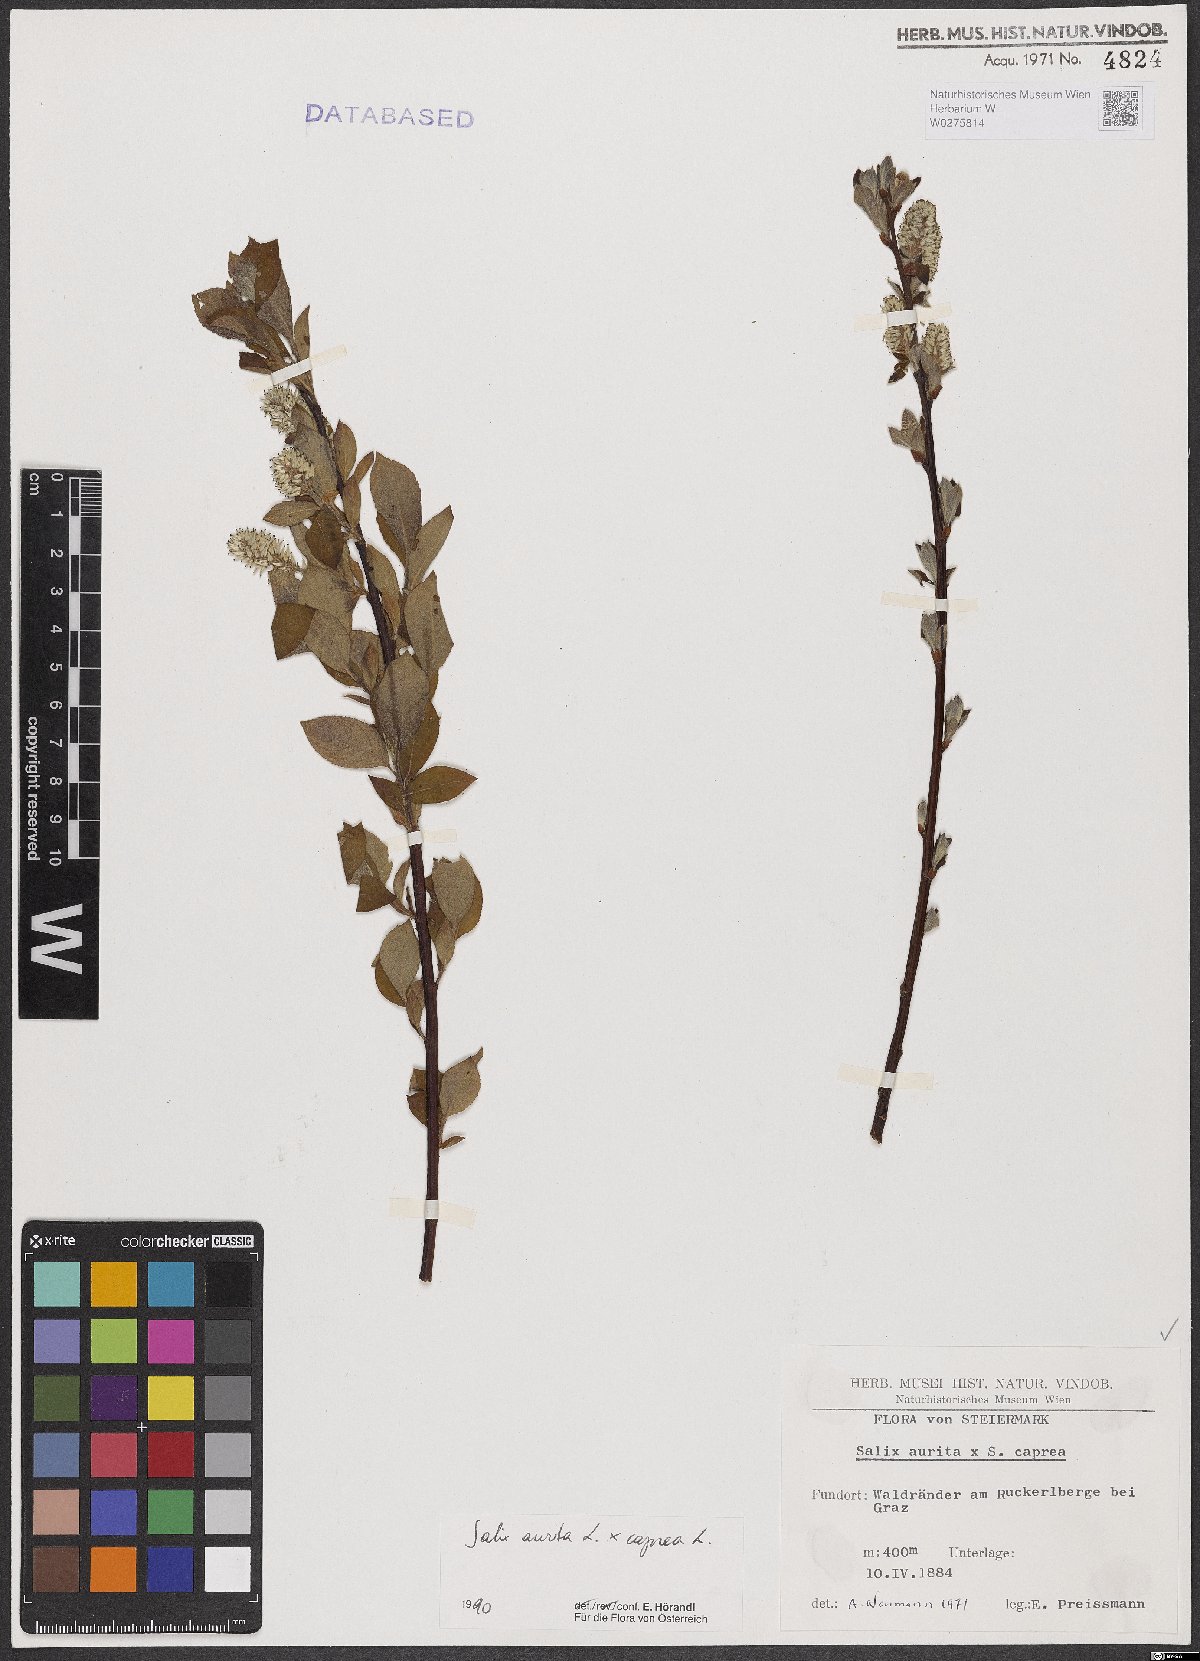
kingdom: Plantae
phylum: Tracheophyta
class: Magnoliopsida
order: Malpighiales
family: Salicaceae
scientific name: Salicaceae
